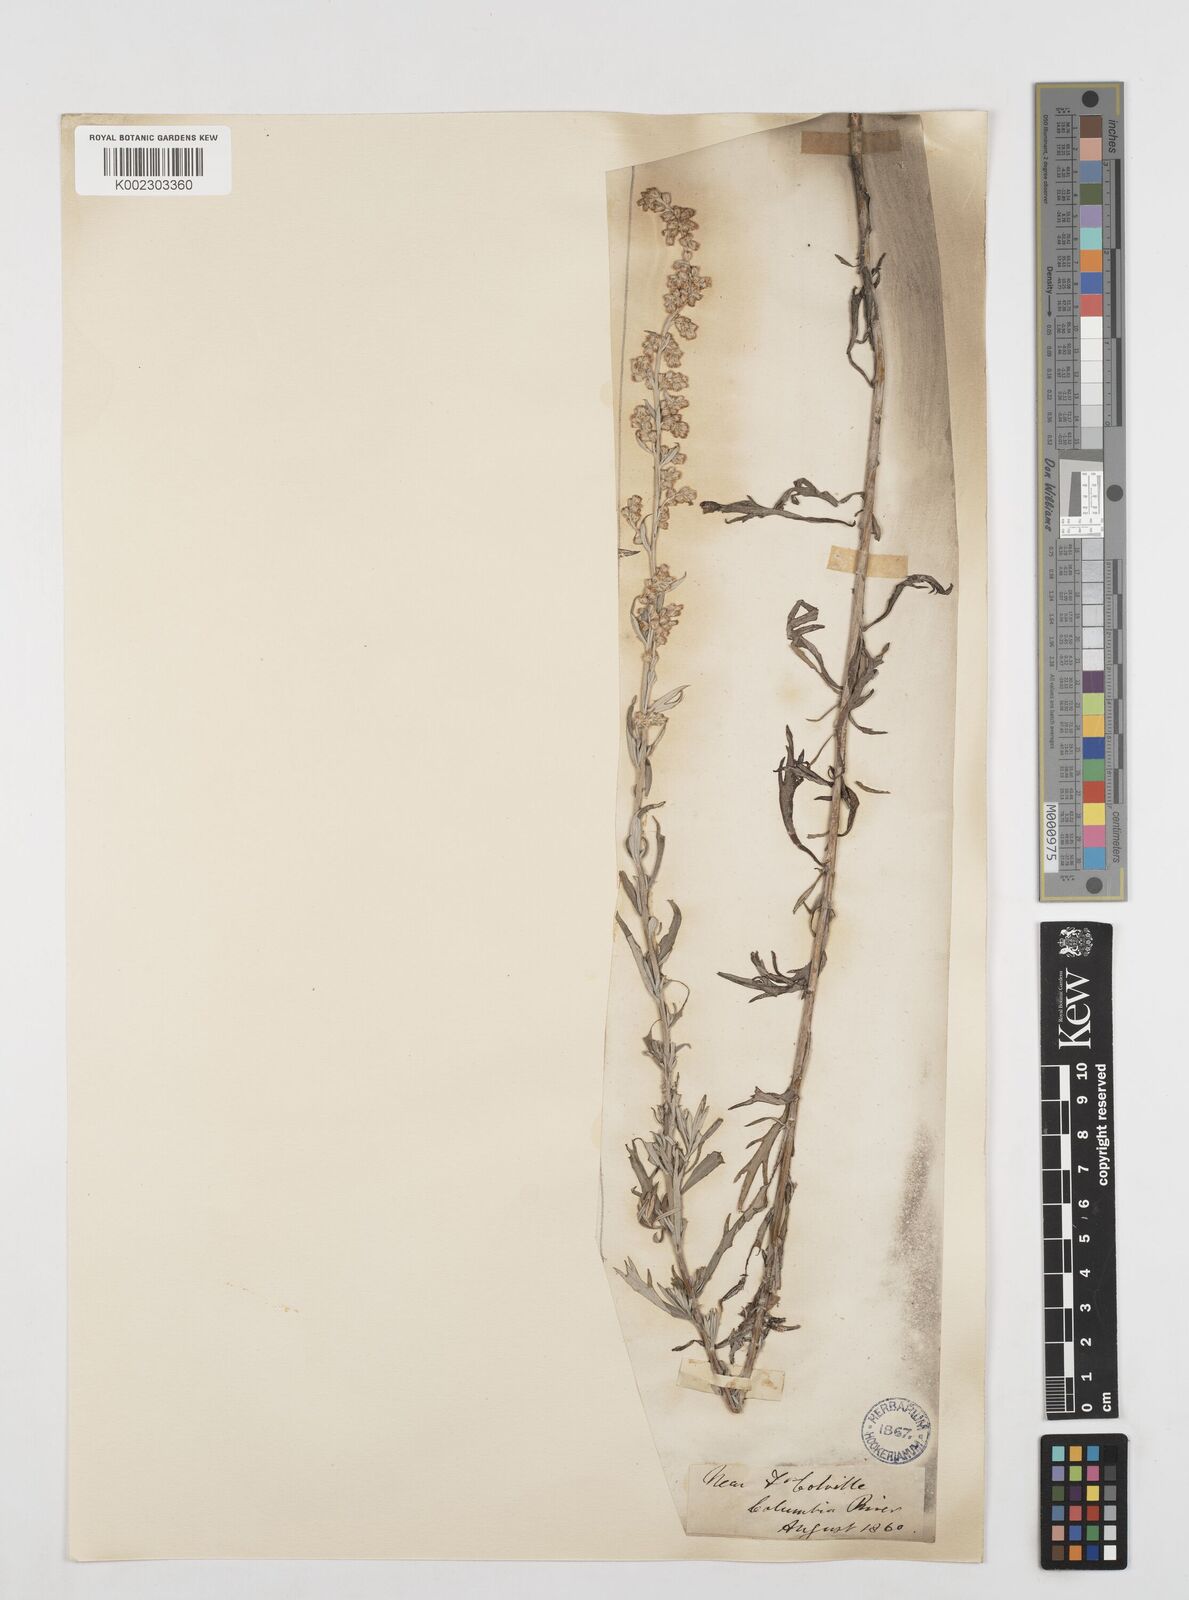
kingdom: Plantae
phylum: Tracheophyta
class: Magnoliopsida
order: Asterales
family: Asteraceae
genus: Artemisia
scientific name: Artemisia
